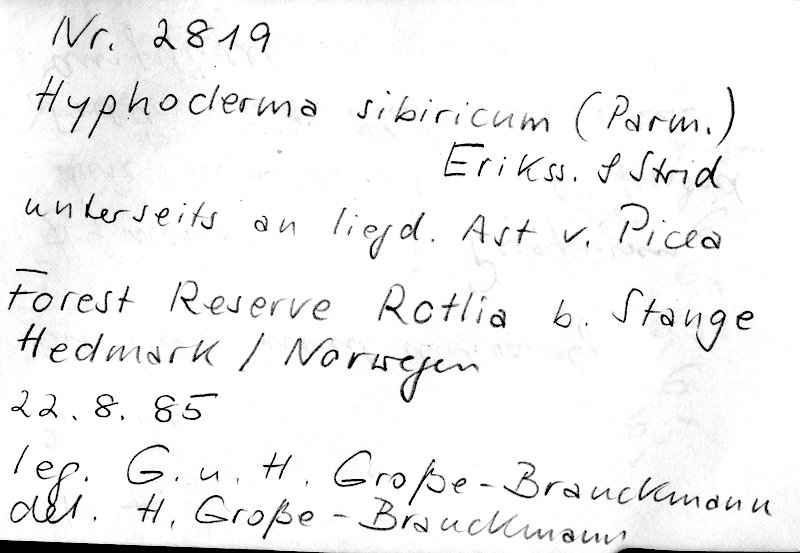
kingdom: Fungi
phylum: Basidiomycota
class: Agaricomycetes
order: Polyporales
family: Hyphodermataceae
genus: Hyphoderma
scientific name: Hyphoderma sibiricum
